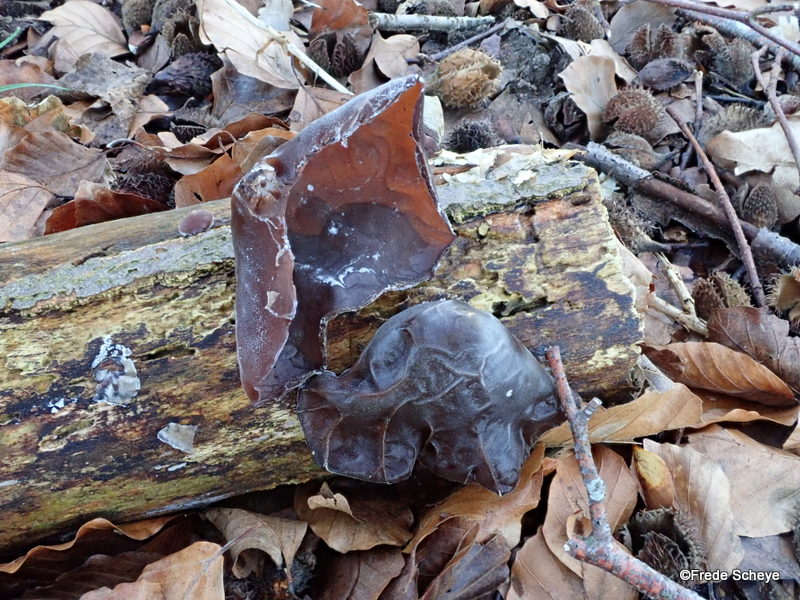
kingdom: Fungi
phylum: Basidiomycota
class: Agaricomycetes
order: Auriculariales
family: Auriculariaceae
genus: Auricularia
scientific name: Auricularia auricula-judae
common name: almindelig judasøre
